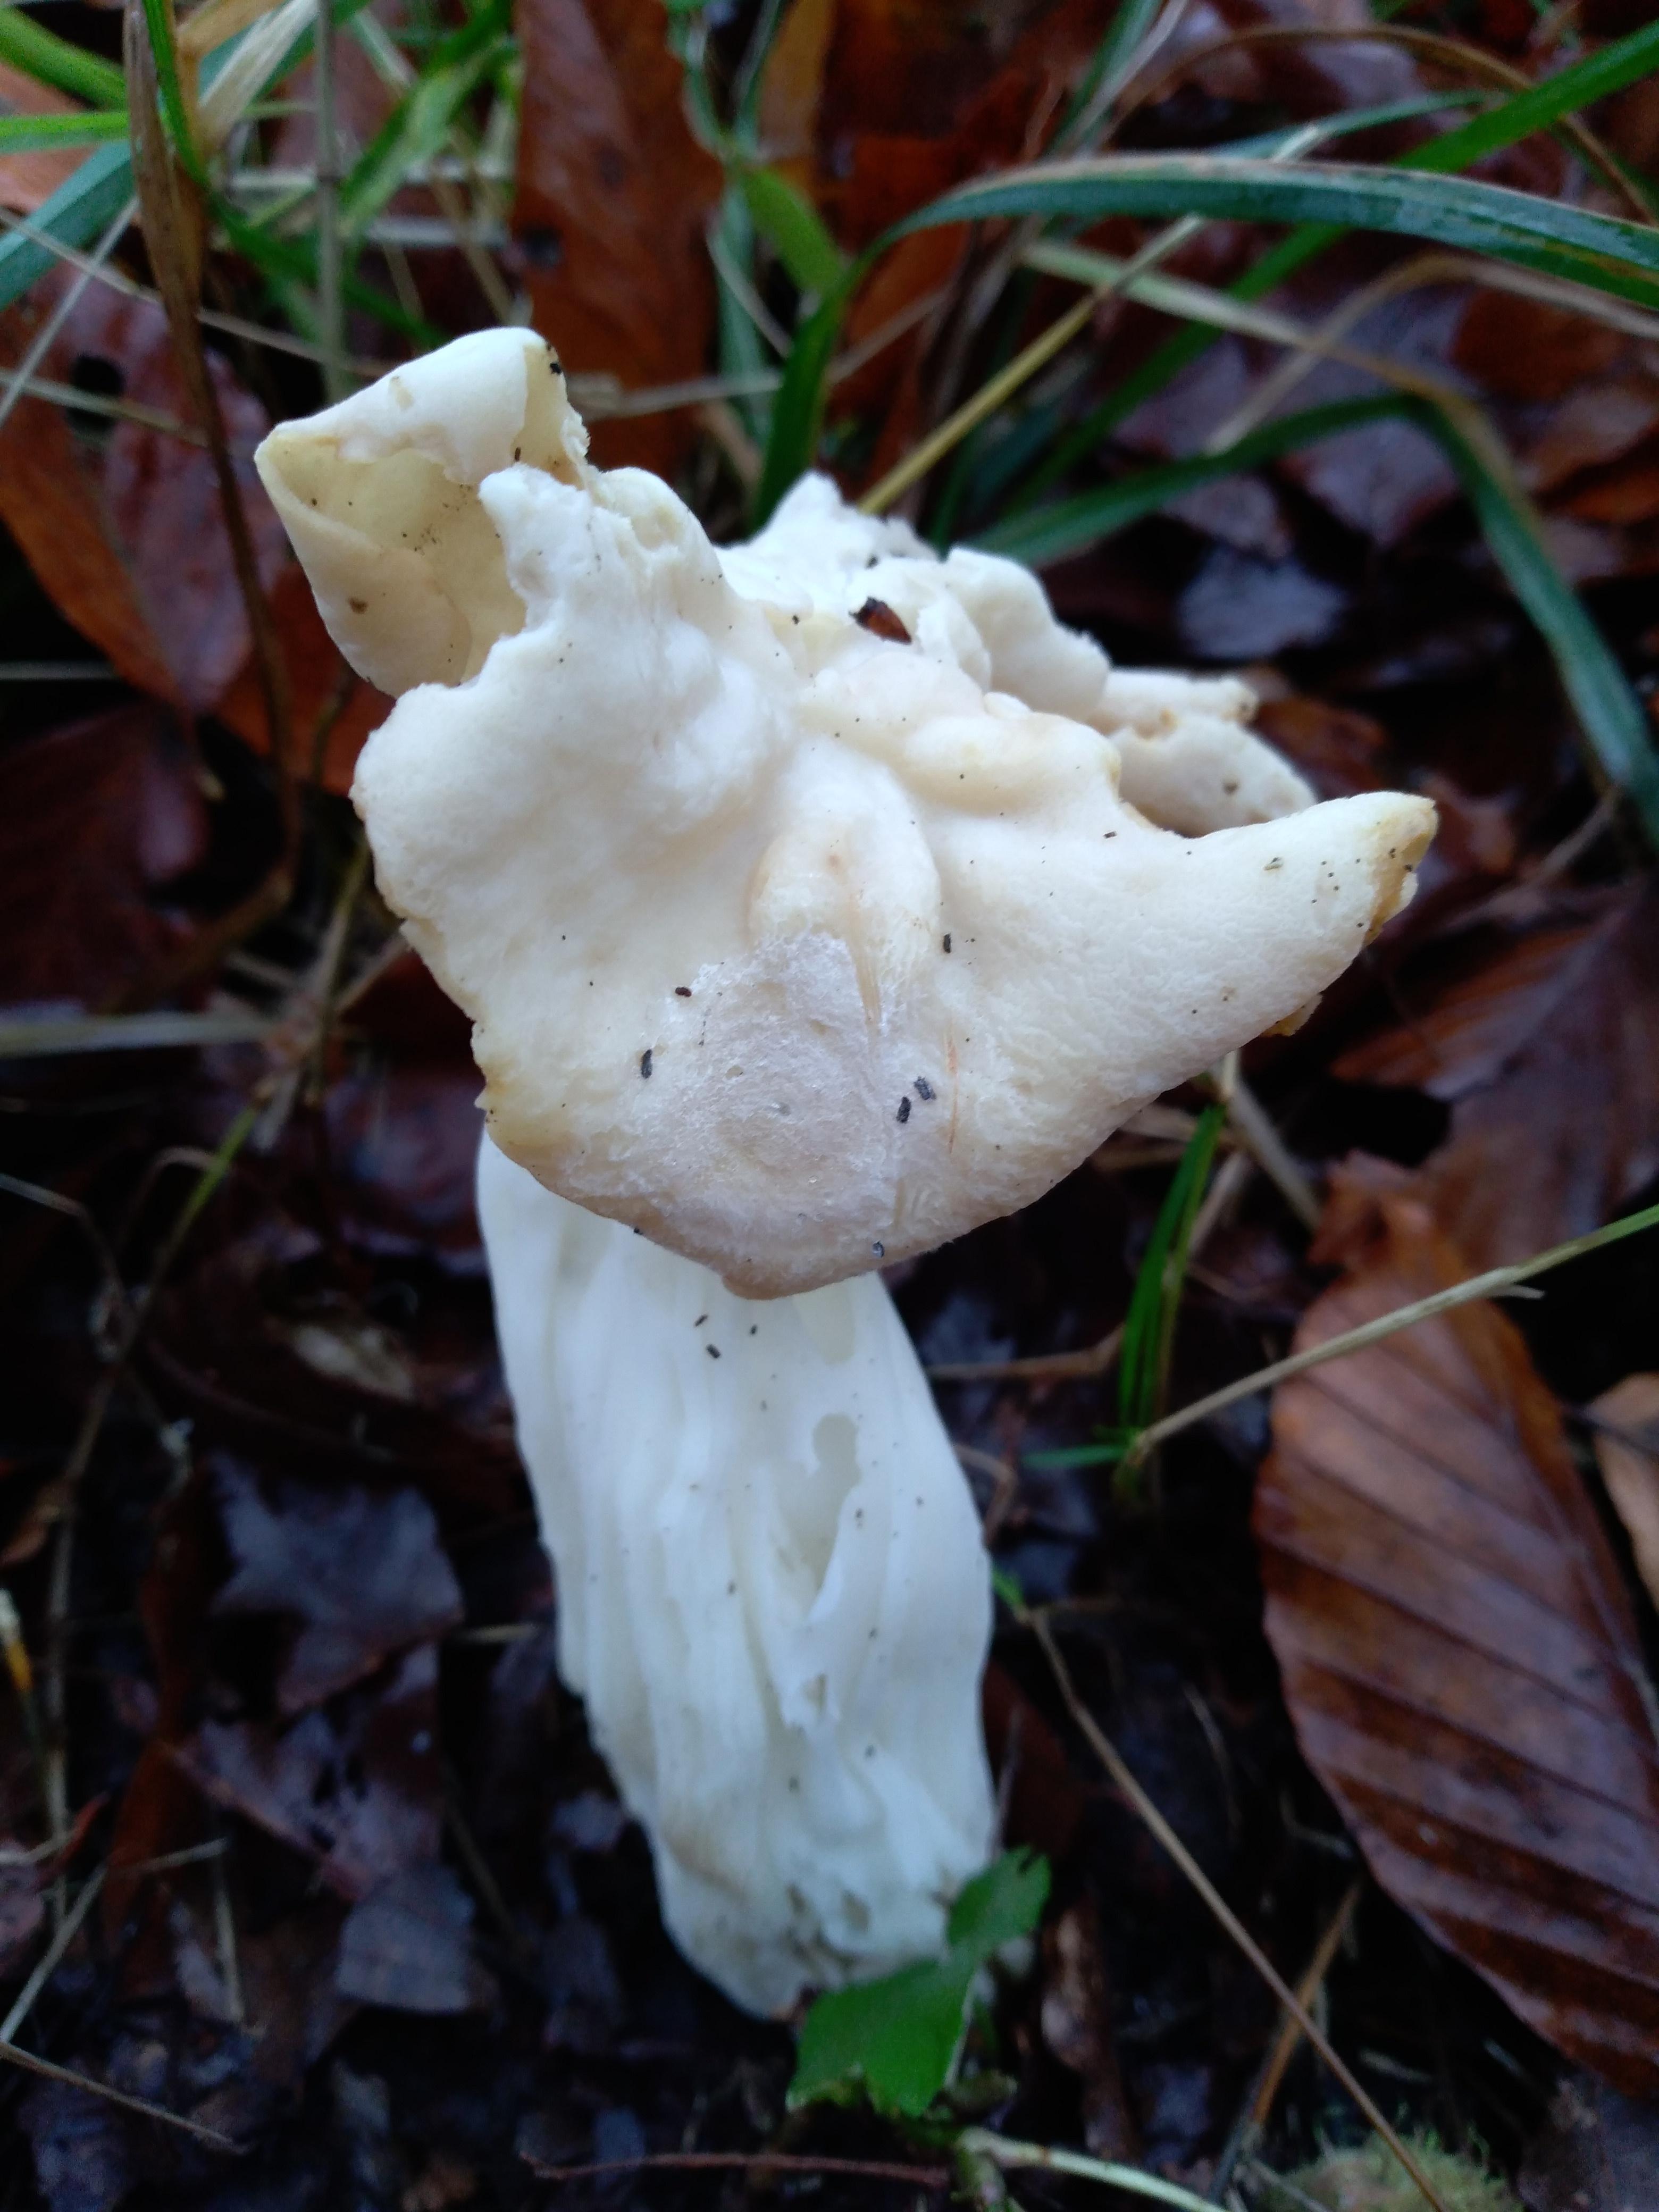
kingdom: Fungi
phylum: Ascomycota
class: Pezizomycetes
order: Pezizales
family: Helvellaceae
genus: Helvella
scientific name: Helvella crispa
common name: kruset foldhat
